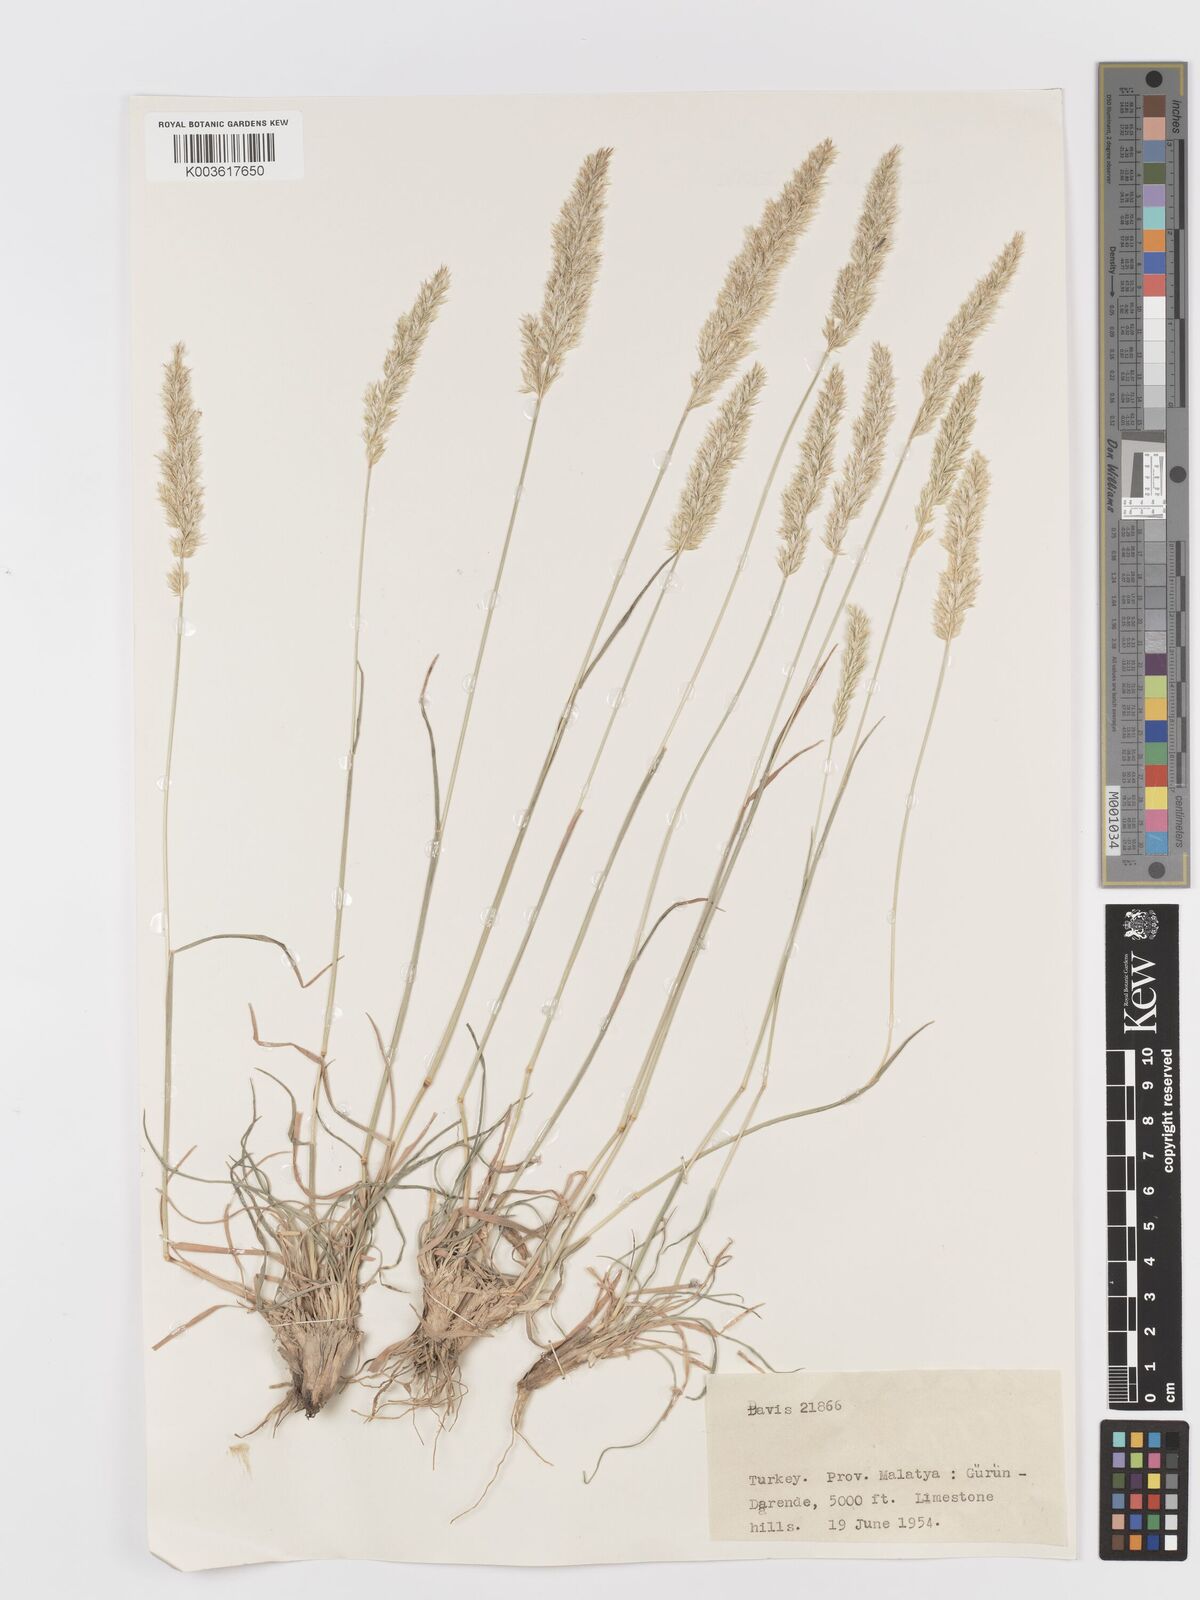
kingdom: Plantae
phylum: Tracheophyta
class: Liliopsida
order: Poales
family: Poaceae
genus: Koeleria
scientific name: Koeleria
